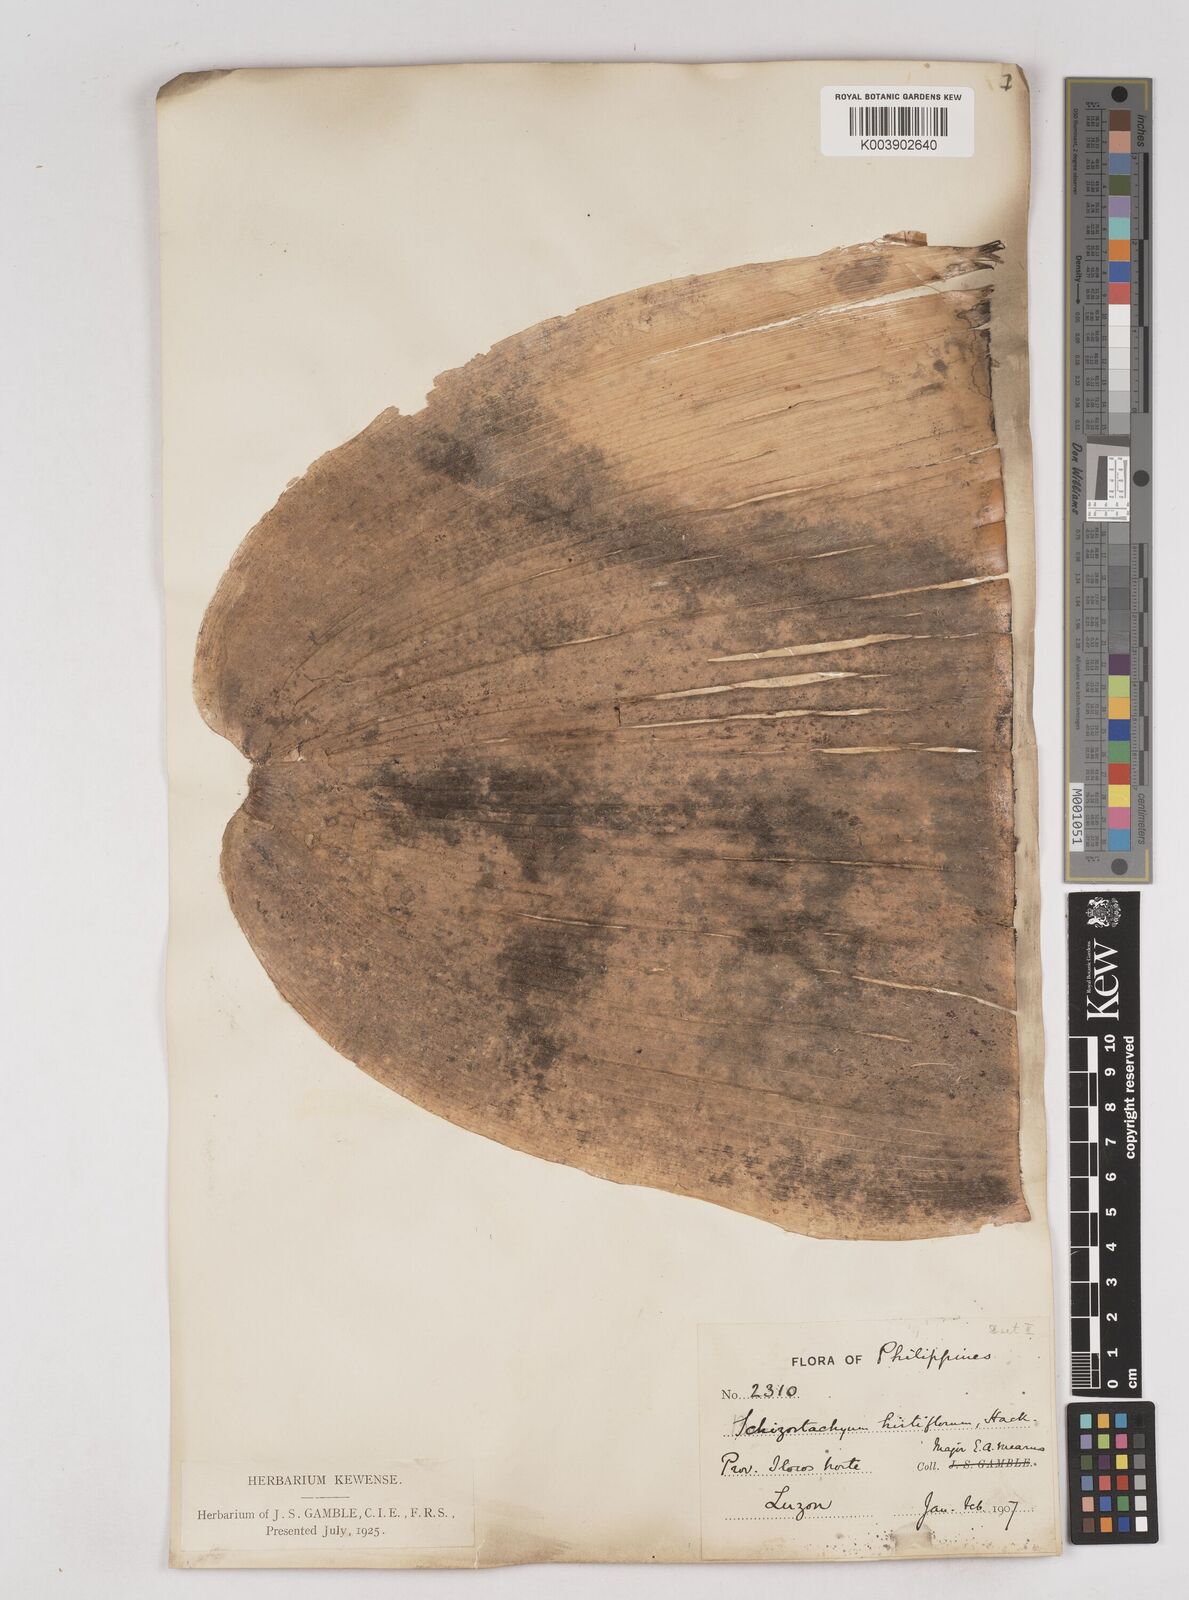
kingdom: Plantae
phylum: Tracheophyta
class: Liliopsida
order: Poales
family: Poaceae
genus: Schizostachyum
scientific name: Schizostachyum lumampao
